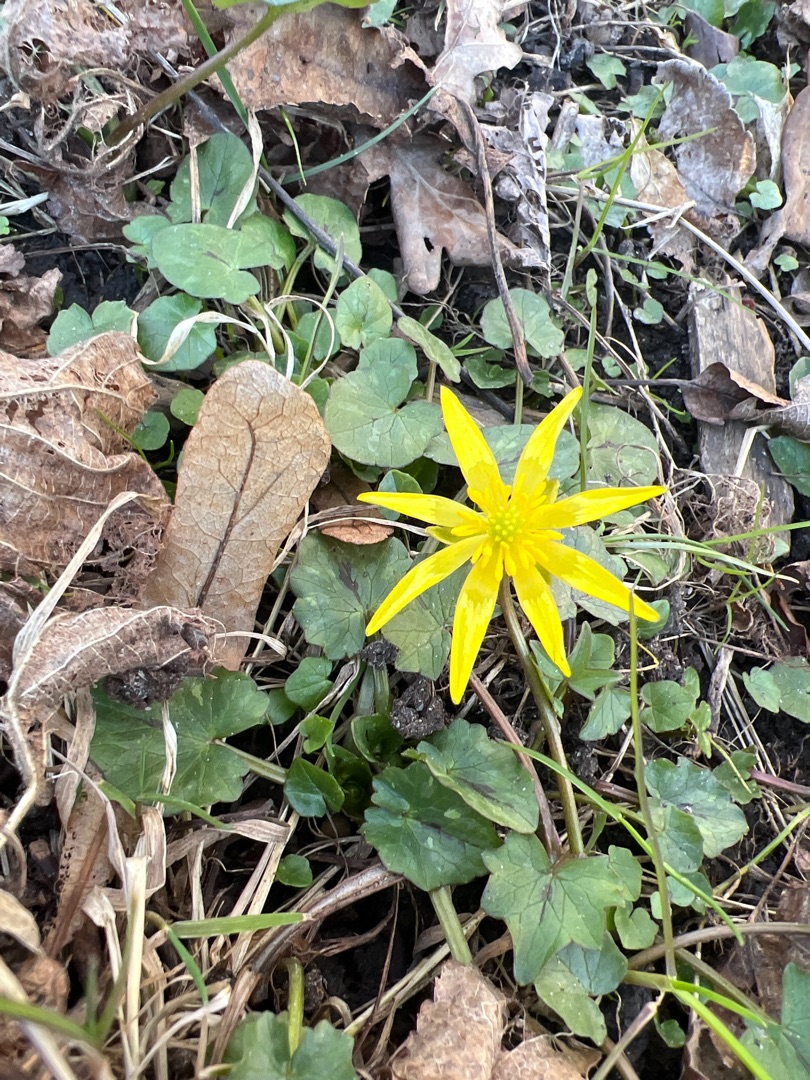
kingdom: Plantae
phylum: Tracheophyta
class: Magnoliopsida
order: Ranunculales
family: Ranunculaceae
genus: Ficaria
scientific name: Ficaria verna
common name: Vorterod
